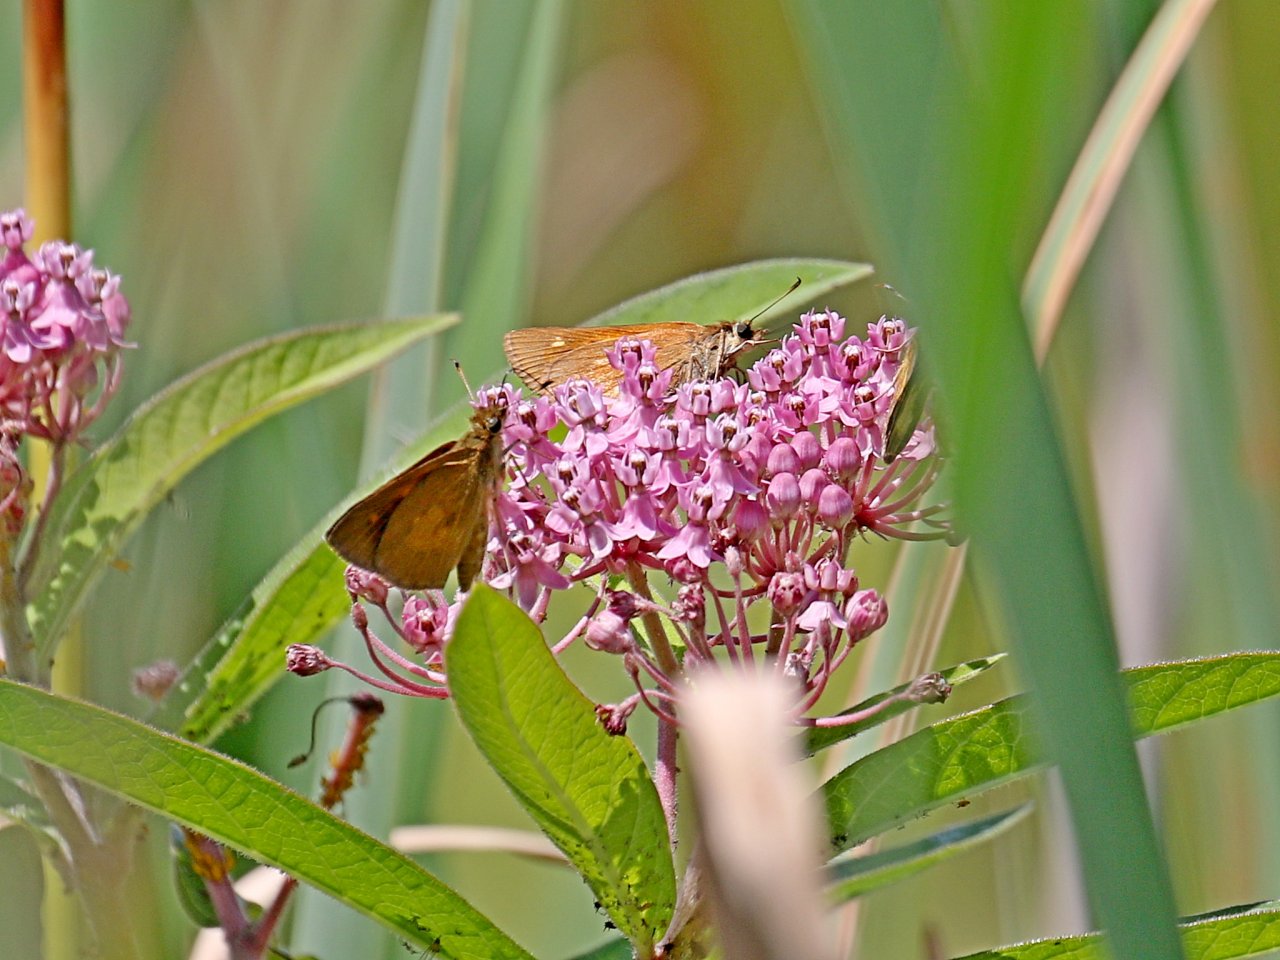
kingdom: Animalia
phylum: Arthropoda
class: Insecta
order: Lepidoptera
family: Hesperiidae
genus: Poanes
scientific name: Poanes viator
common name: Broad-winged Skipper
